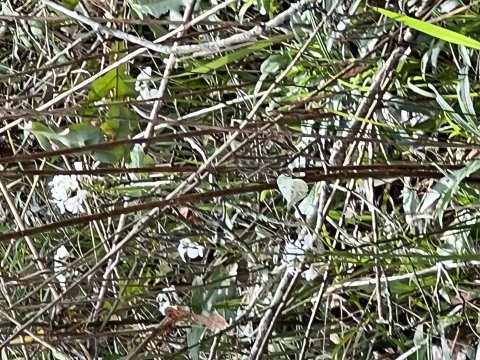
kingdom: Animalia
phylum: Arthropoda
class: Insecta
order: Lepidoptera
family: Pieridae
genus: Anthocharis
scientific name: Anthocharis midea
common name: Falcate Orangetip
